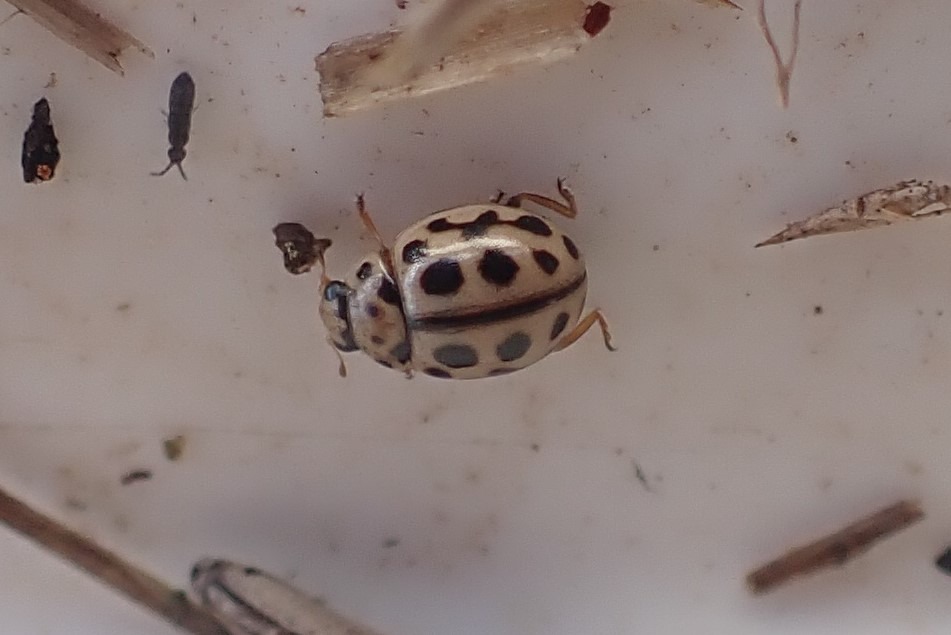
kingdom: Animalia
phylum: Arthropoda
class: Insecta
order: Coleoptera
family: Coccinellidae
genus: Tytthaspis
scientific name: Tytthaspis sedecimpunctata
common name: Sekstenprikket mariehøne
